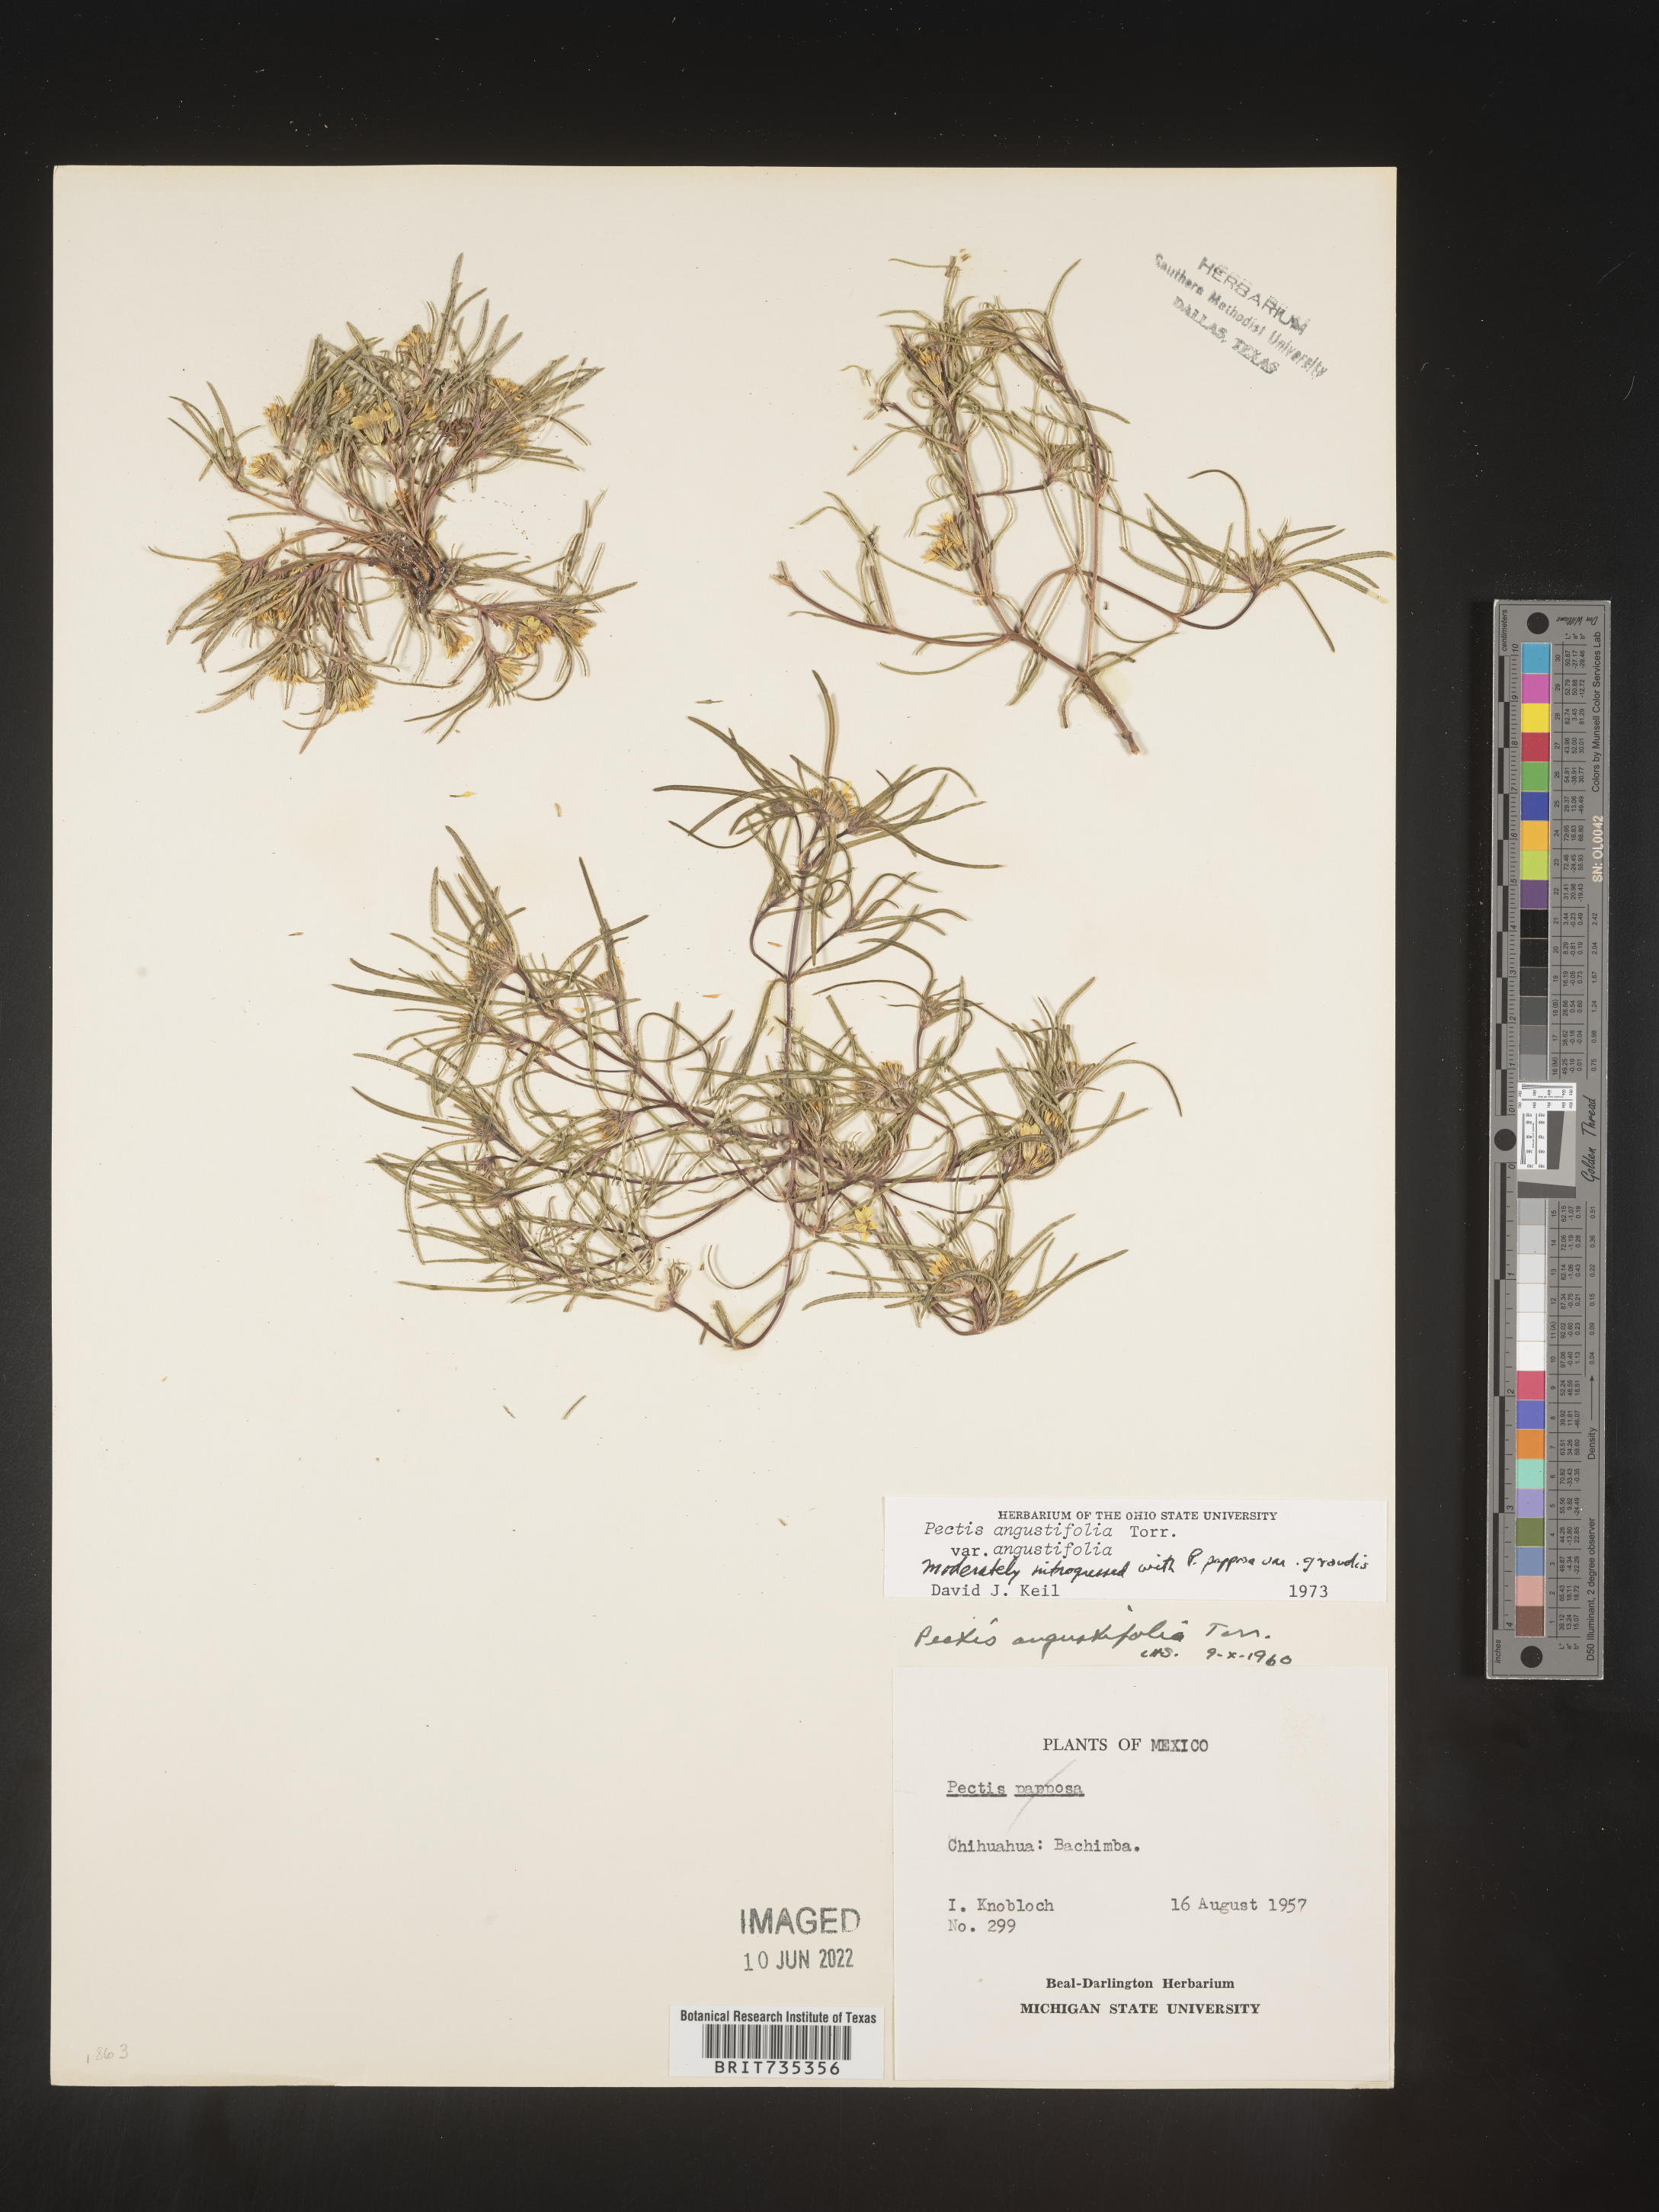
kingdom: Plantae
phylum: Tracheophyta
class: Magnoliopsida
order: Asterales
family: Asteraceae
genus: Pectis
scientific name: Pectis
